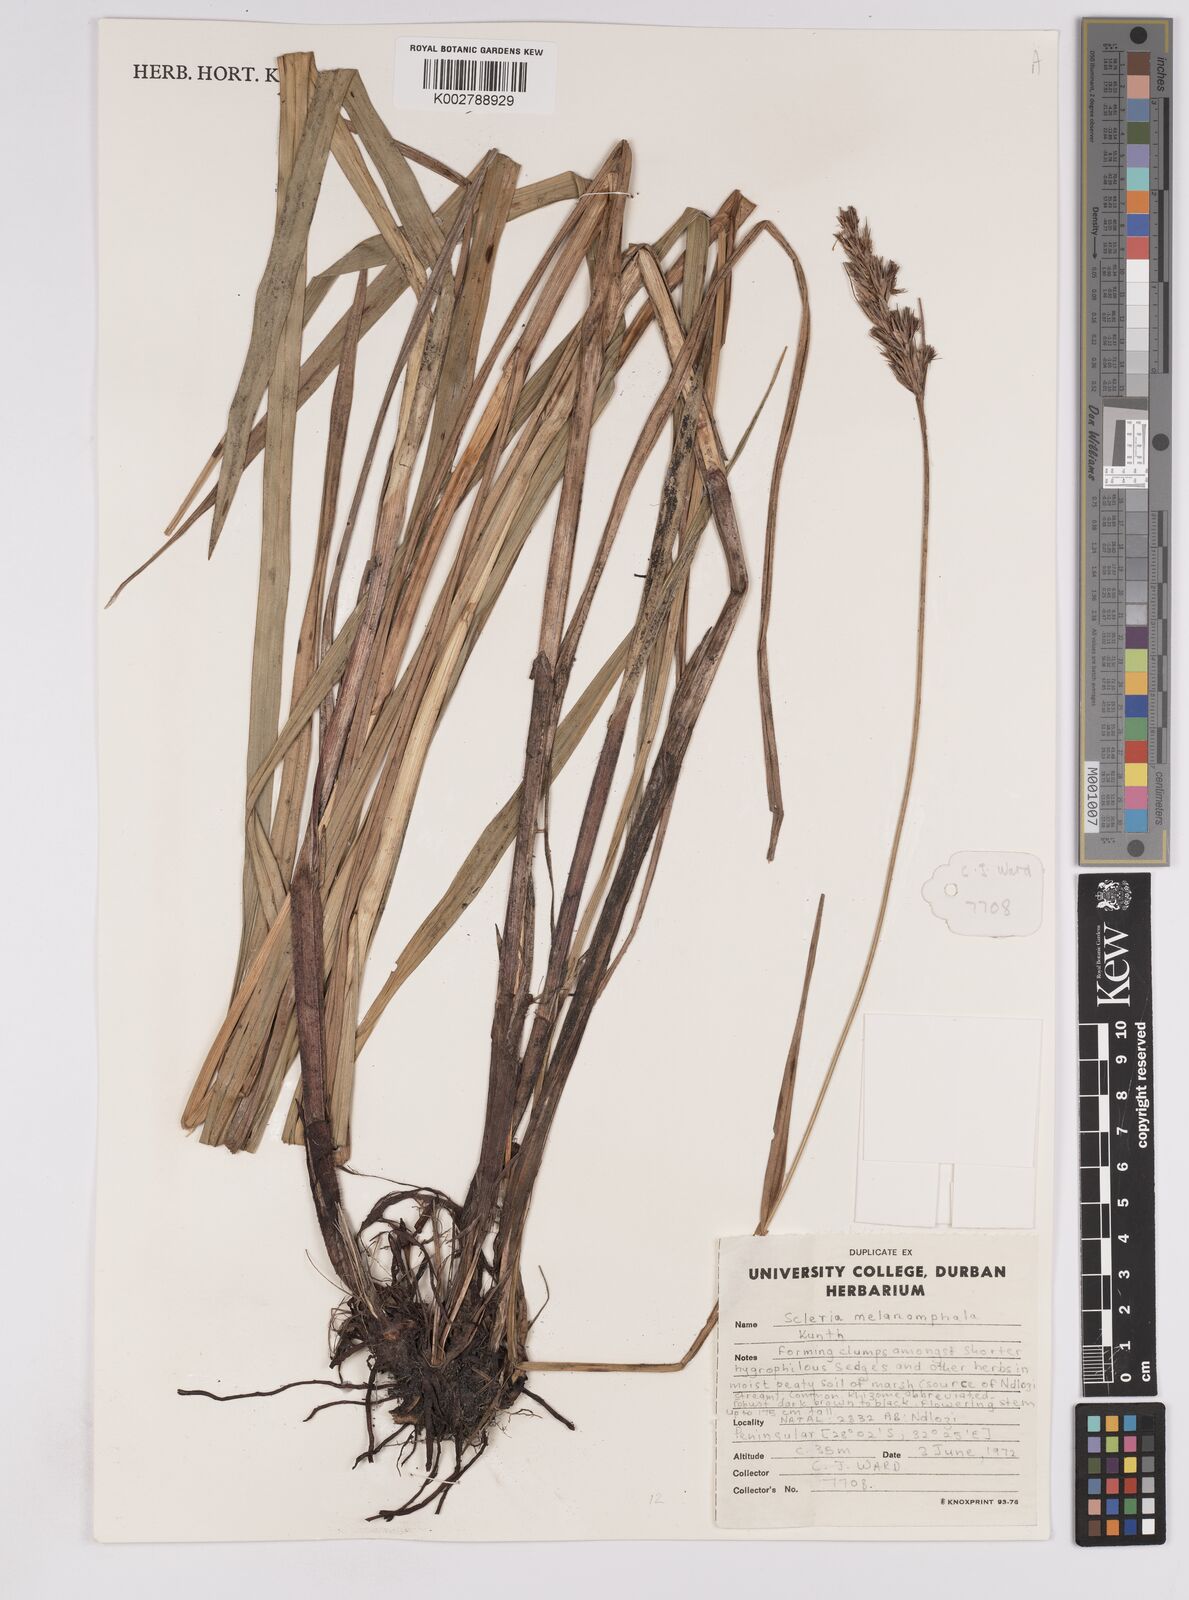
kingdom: Plantae
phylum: Tracheophyta
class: Liliopsida
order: Poales
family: Cyperaceae
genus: Scleria
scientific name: Scleria melanomphala
